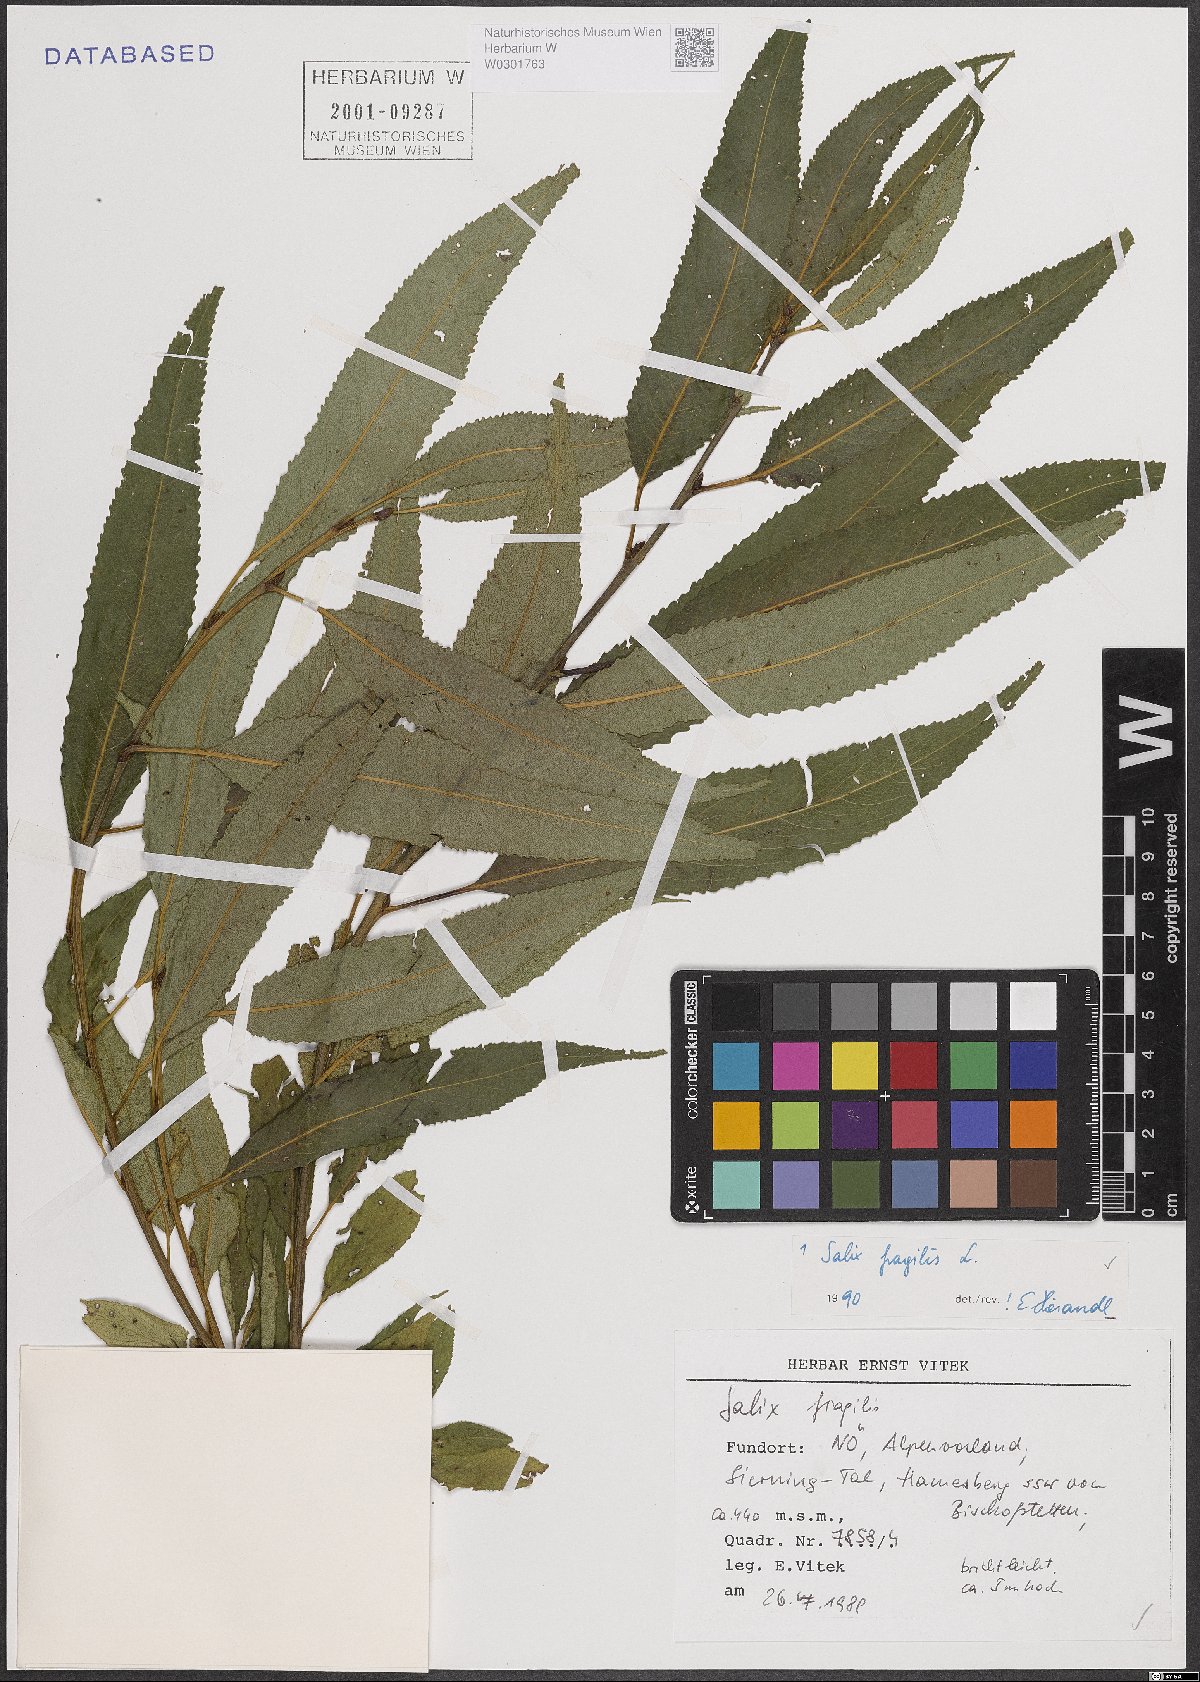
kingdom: Plantae
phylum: Tracheophyta
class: Magnoliopsida
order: Malpighiales
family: Salicaceae
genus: Salix
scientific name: Salix fragilis
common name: Crack willow
